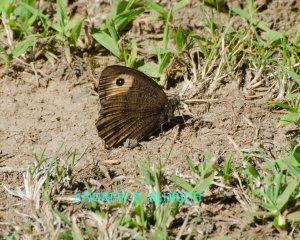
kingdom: Animalia
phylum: Arthropoda
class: Insecta
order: Lepidoptera
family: Nymphalidae
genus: Cercyonis
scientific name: Cercyonis pegala
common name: Common Wood-Nymph
